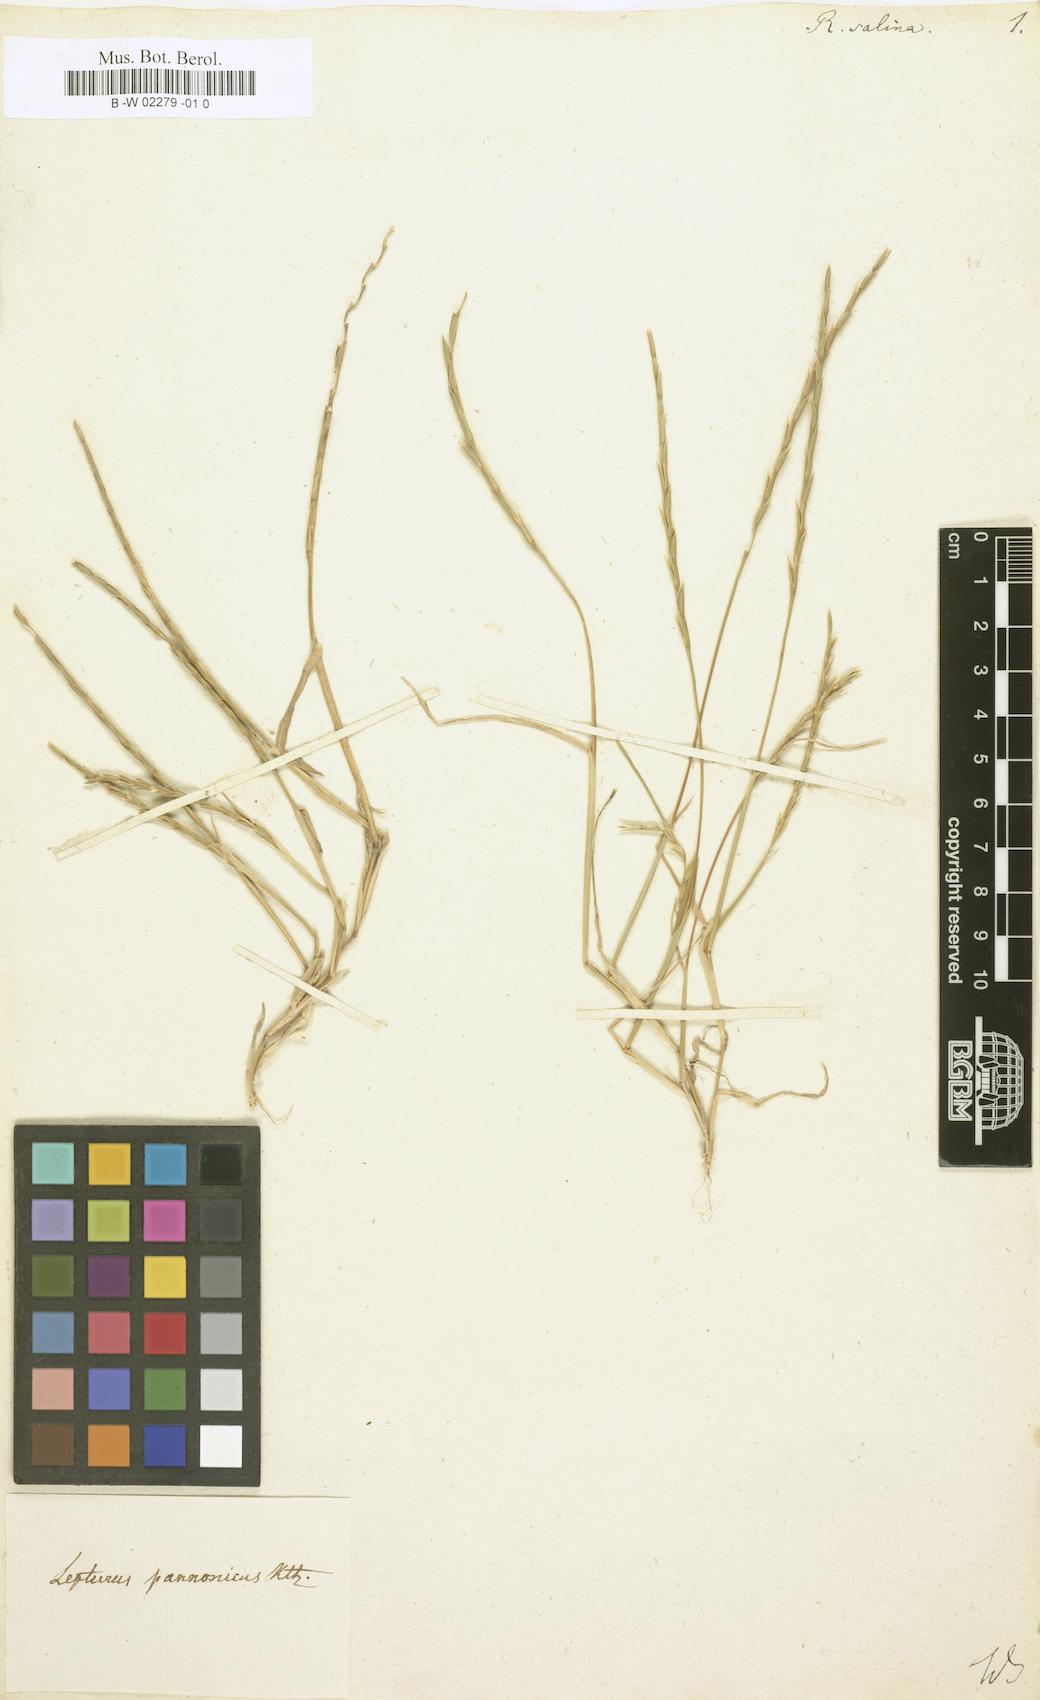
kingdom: Plantae
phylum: Tracheophyta
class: Liliopsida
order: Poales
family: Poaceae
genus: Rottboellia
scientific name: Rottboellia salina
